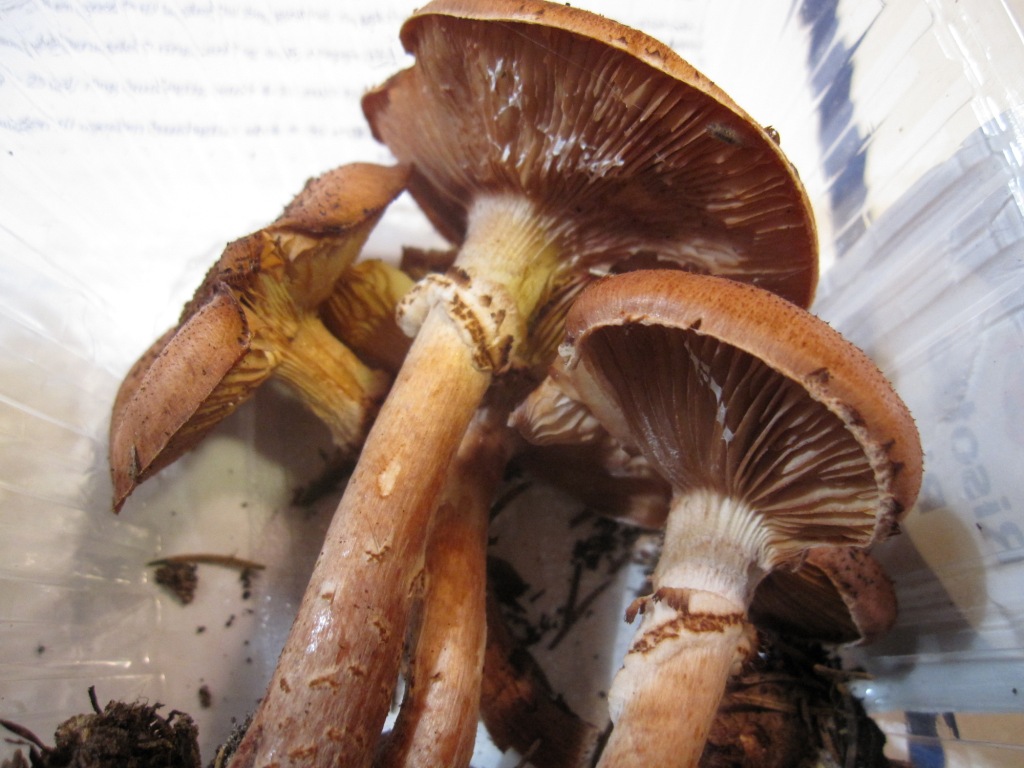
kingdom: Fungi
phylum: Basidiomycota
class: Agaricomycetes
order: Agaricales
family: Physalacriaceae
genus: Armillaria
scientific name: Armillaria ostoyae
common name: mørk honningsvamp
